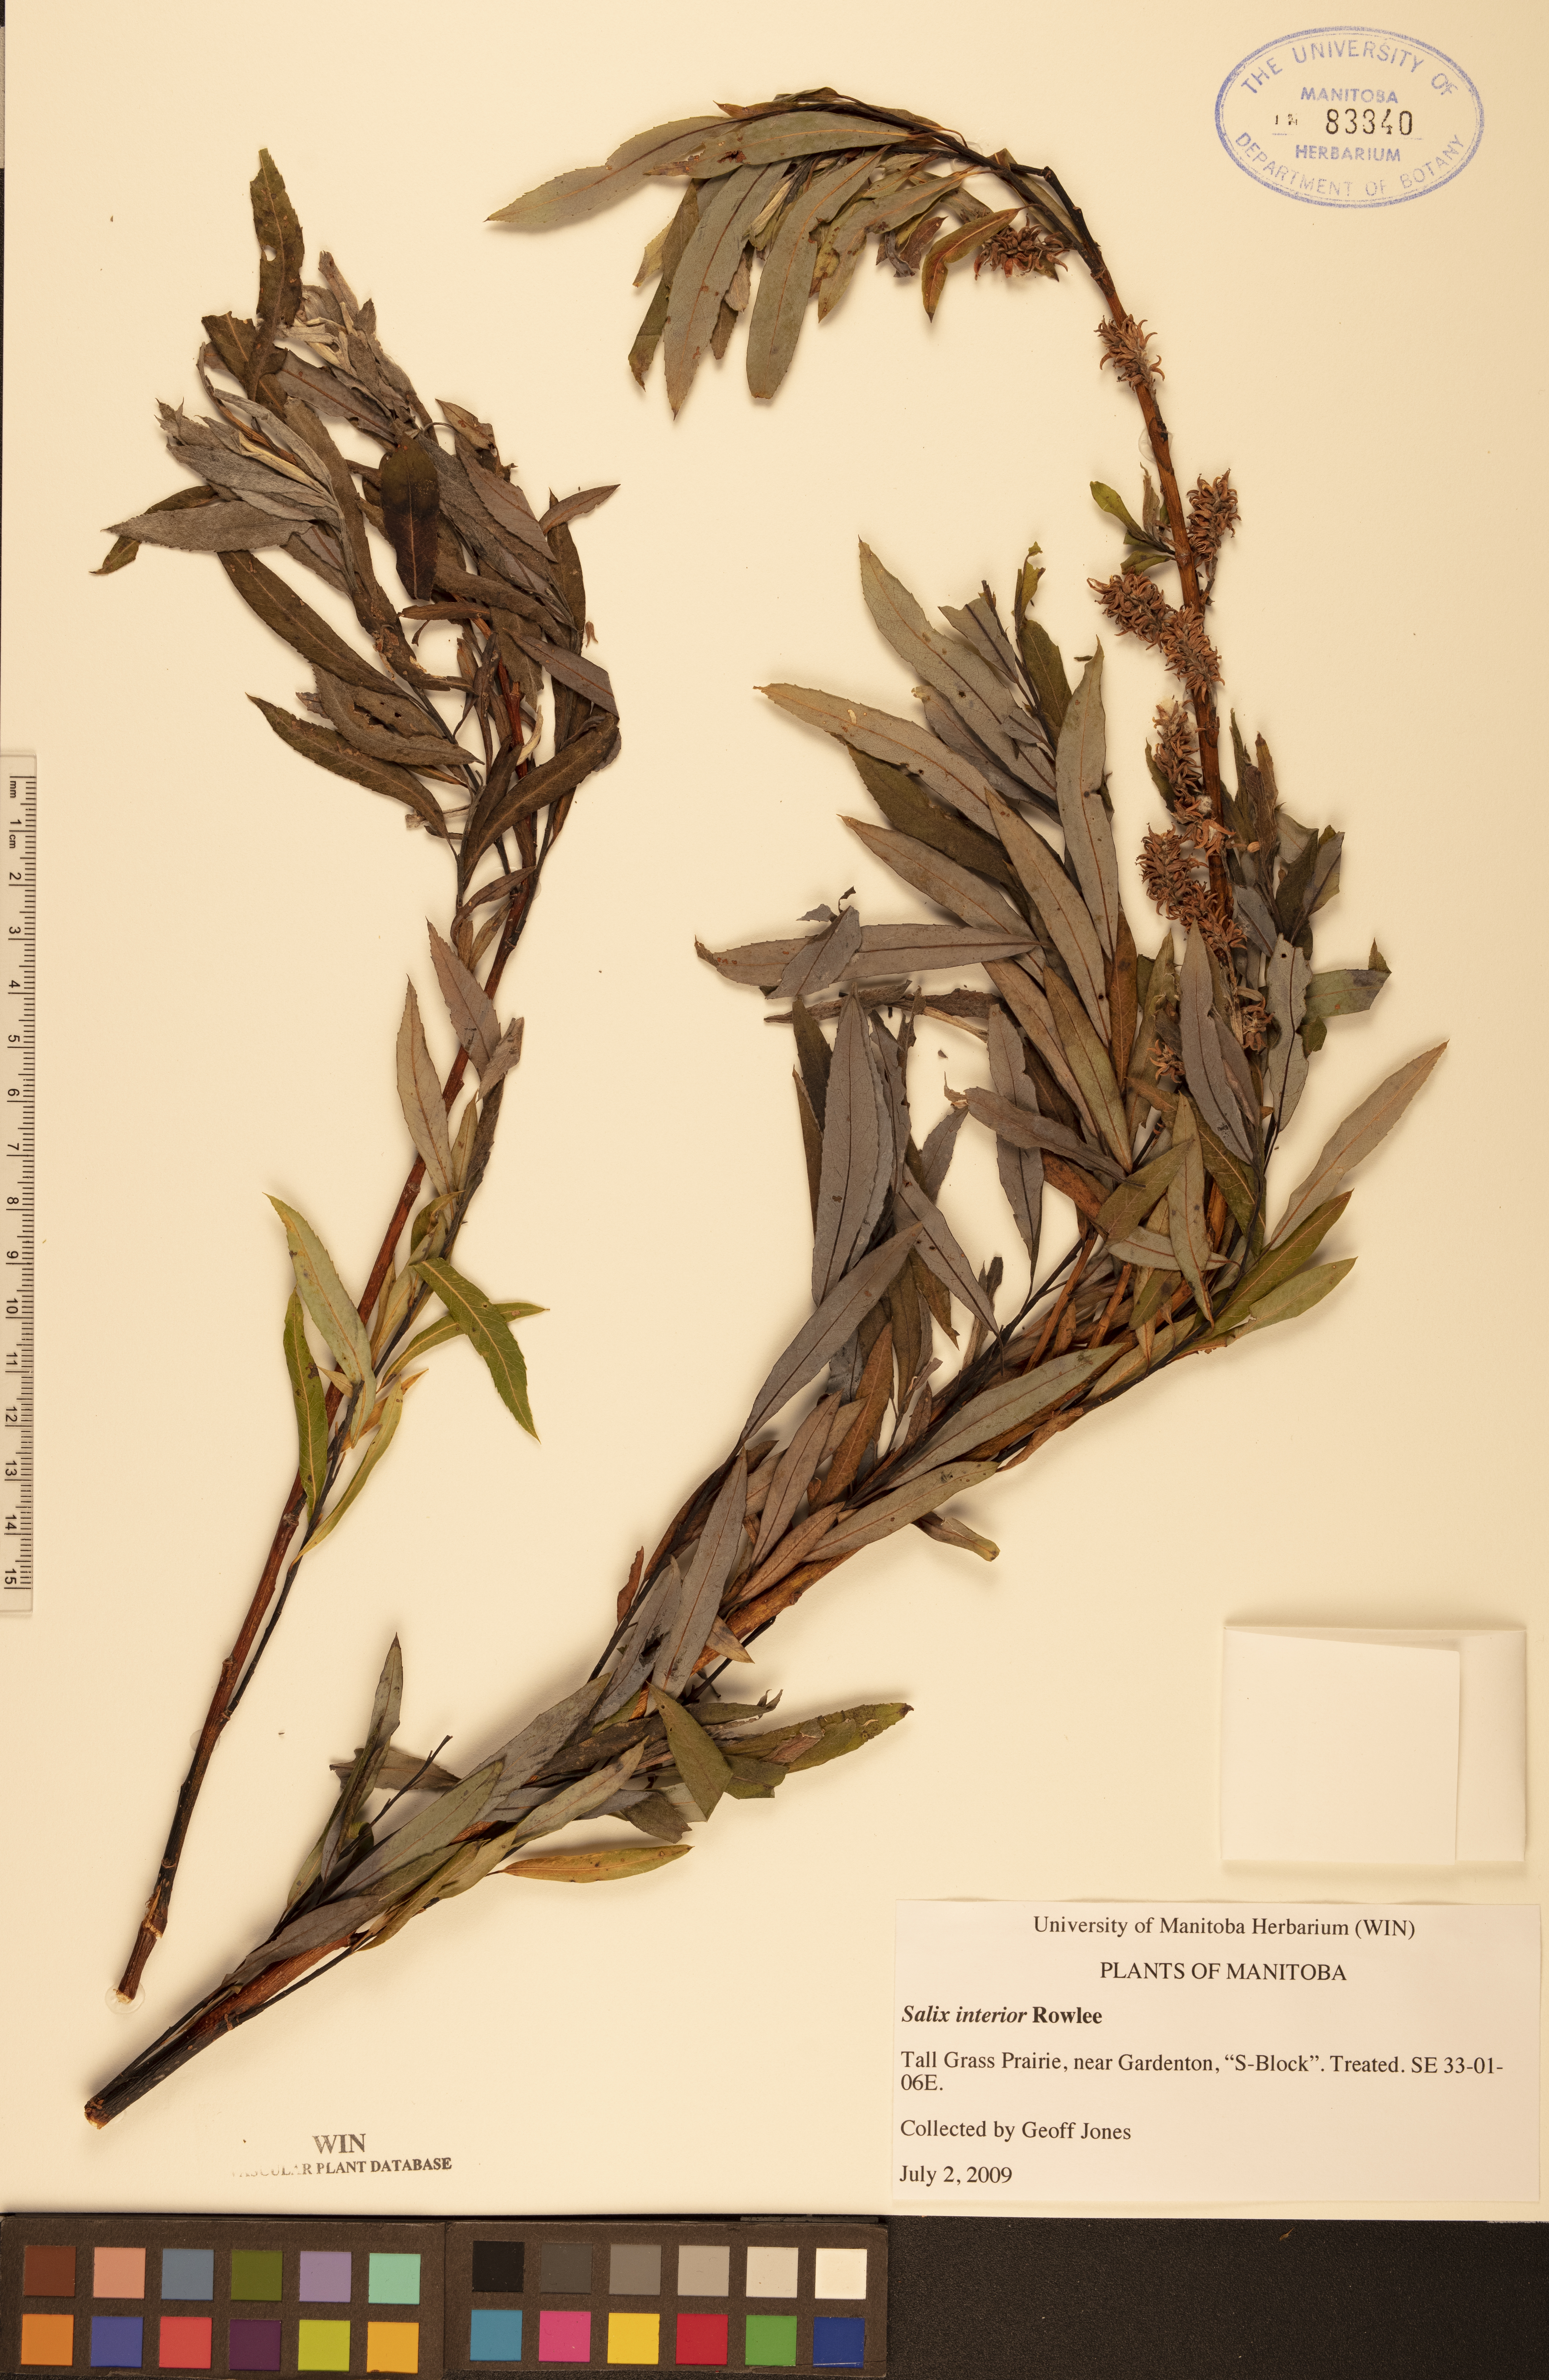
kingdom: Plantae
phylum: Tracheophyta
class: Magnoliopsida
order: Malpighiales
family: Salicaceae
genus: Salix
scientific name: Salix interior
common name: Sandbar willow
